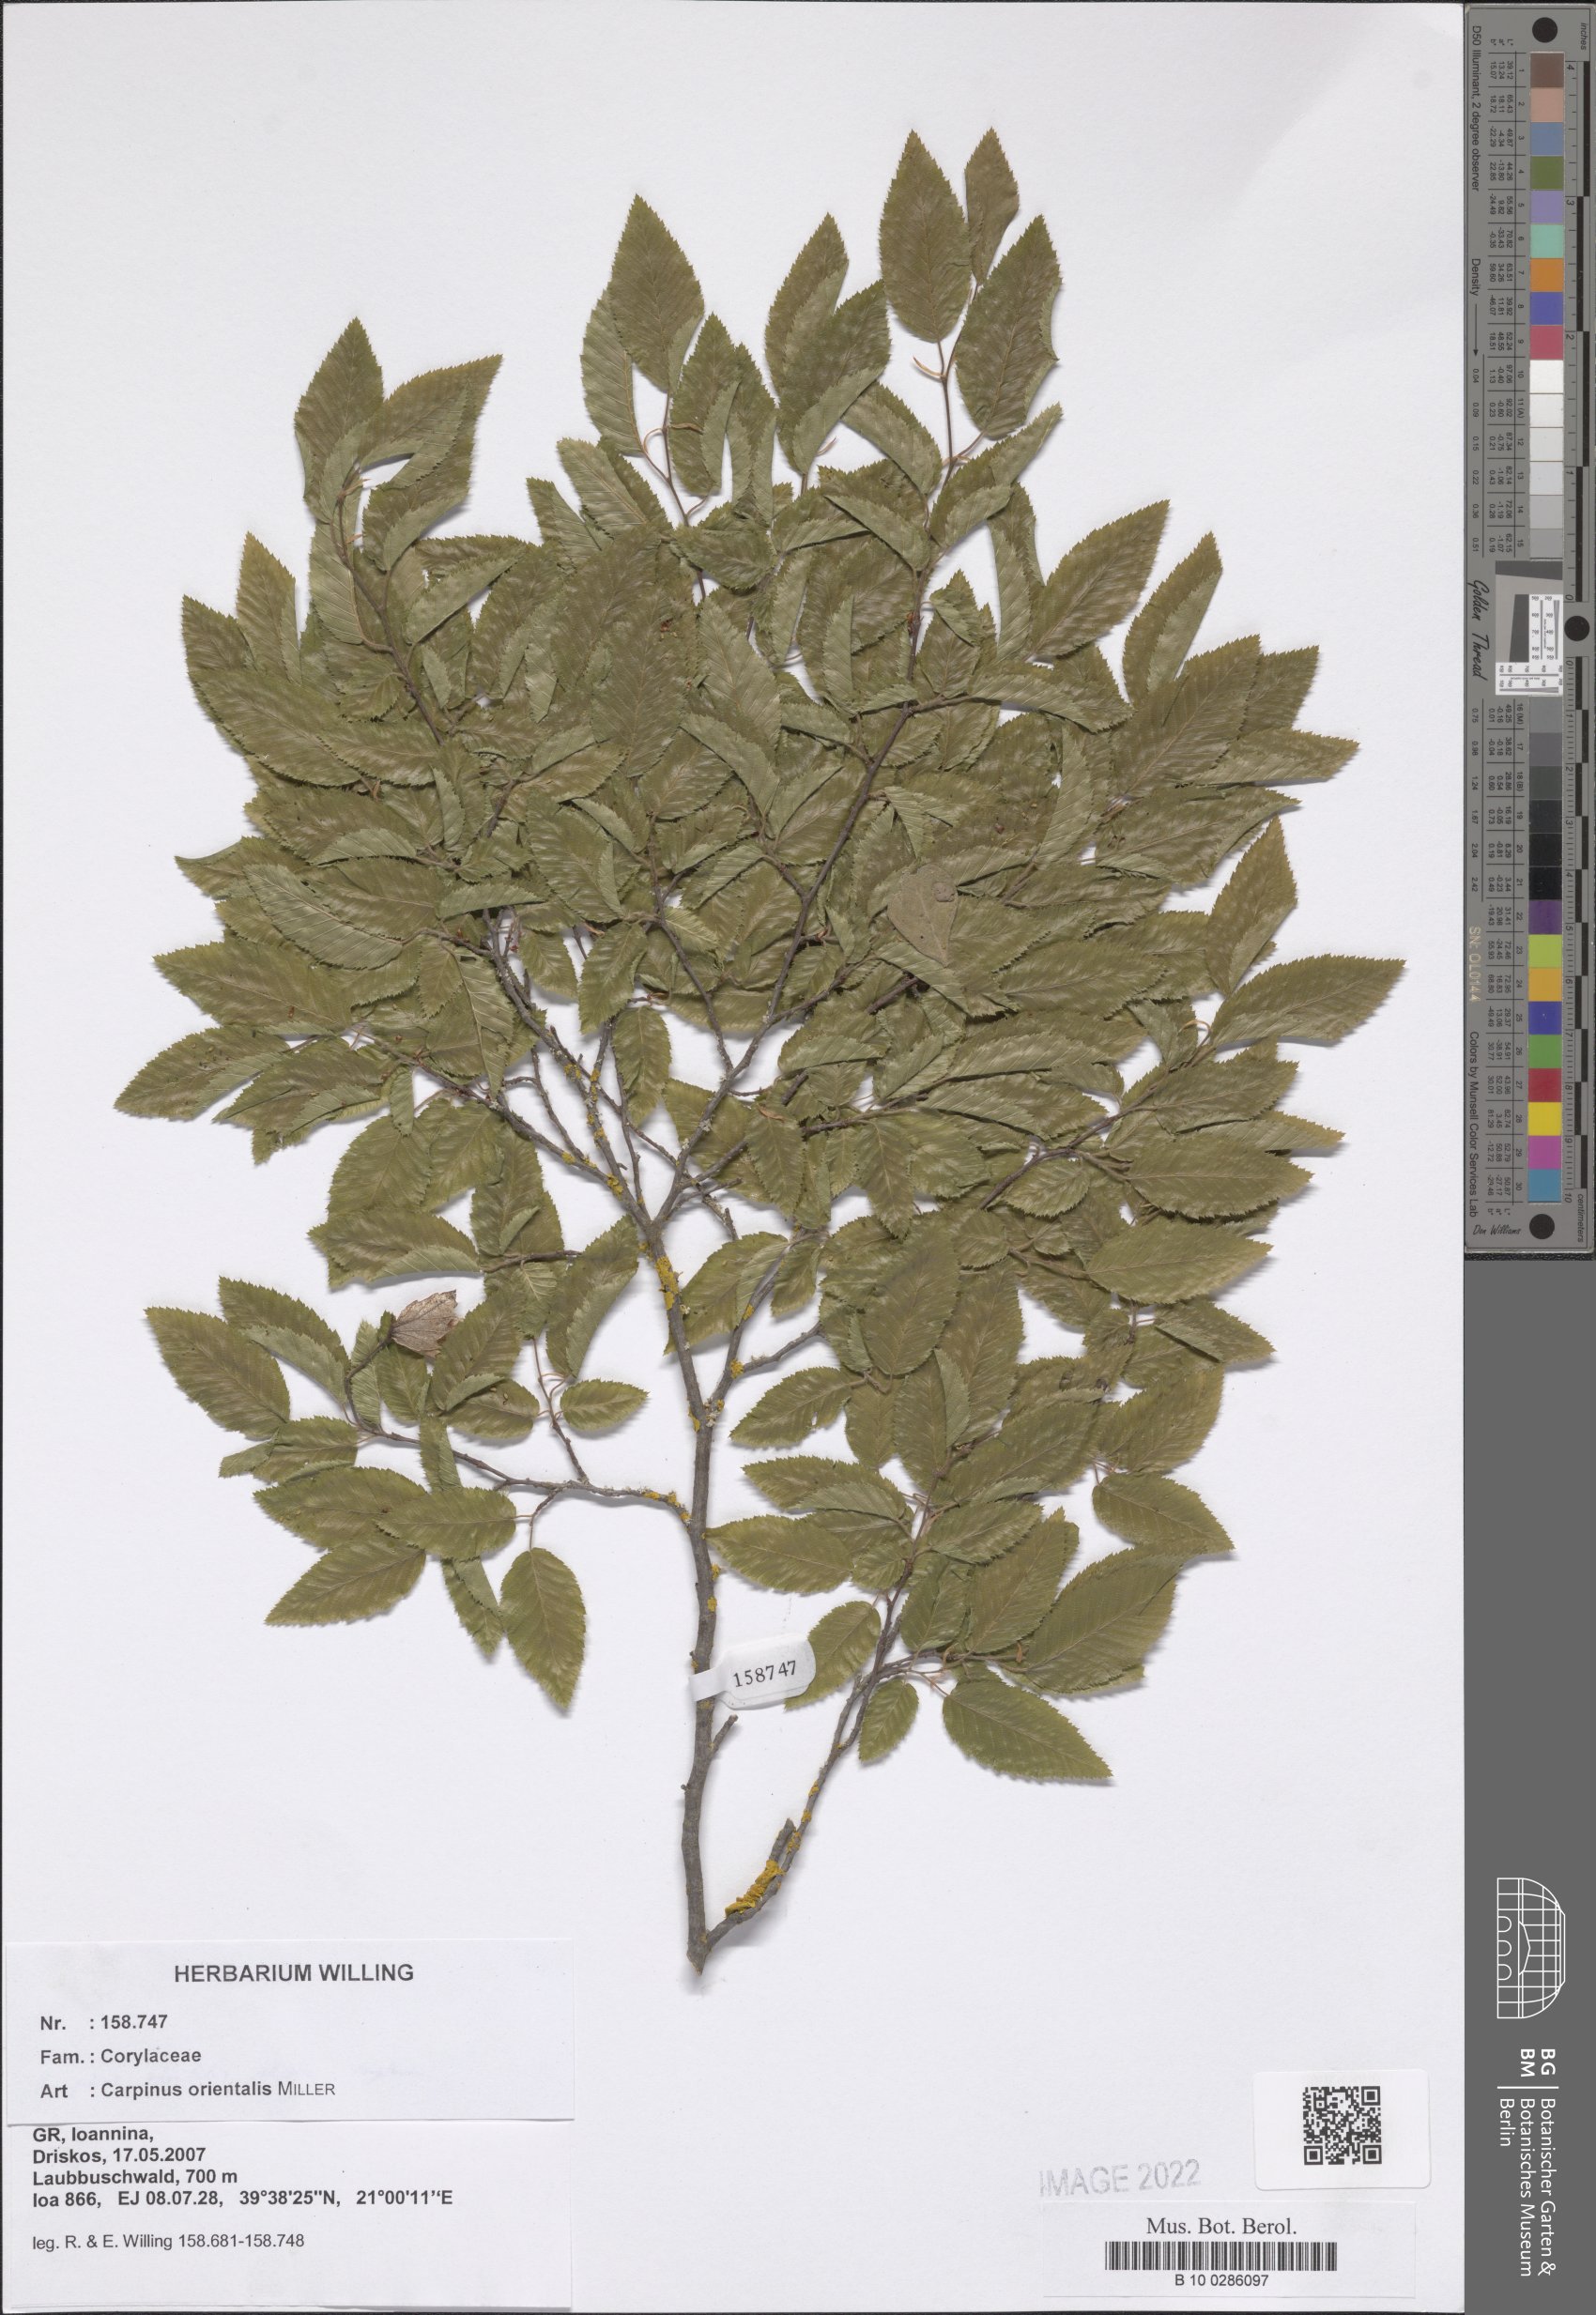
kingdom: Plantae
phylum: Tracheophyta
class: Magnoliopsida
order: Fagales
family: Betulaceae
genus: Carpinus
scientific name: Carpinus orientalis
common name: Eastern hornbeam
